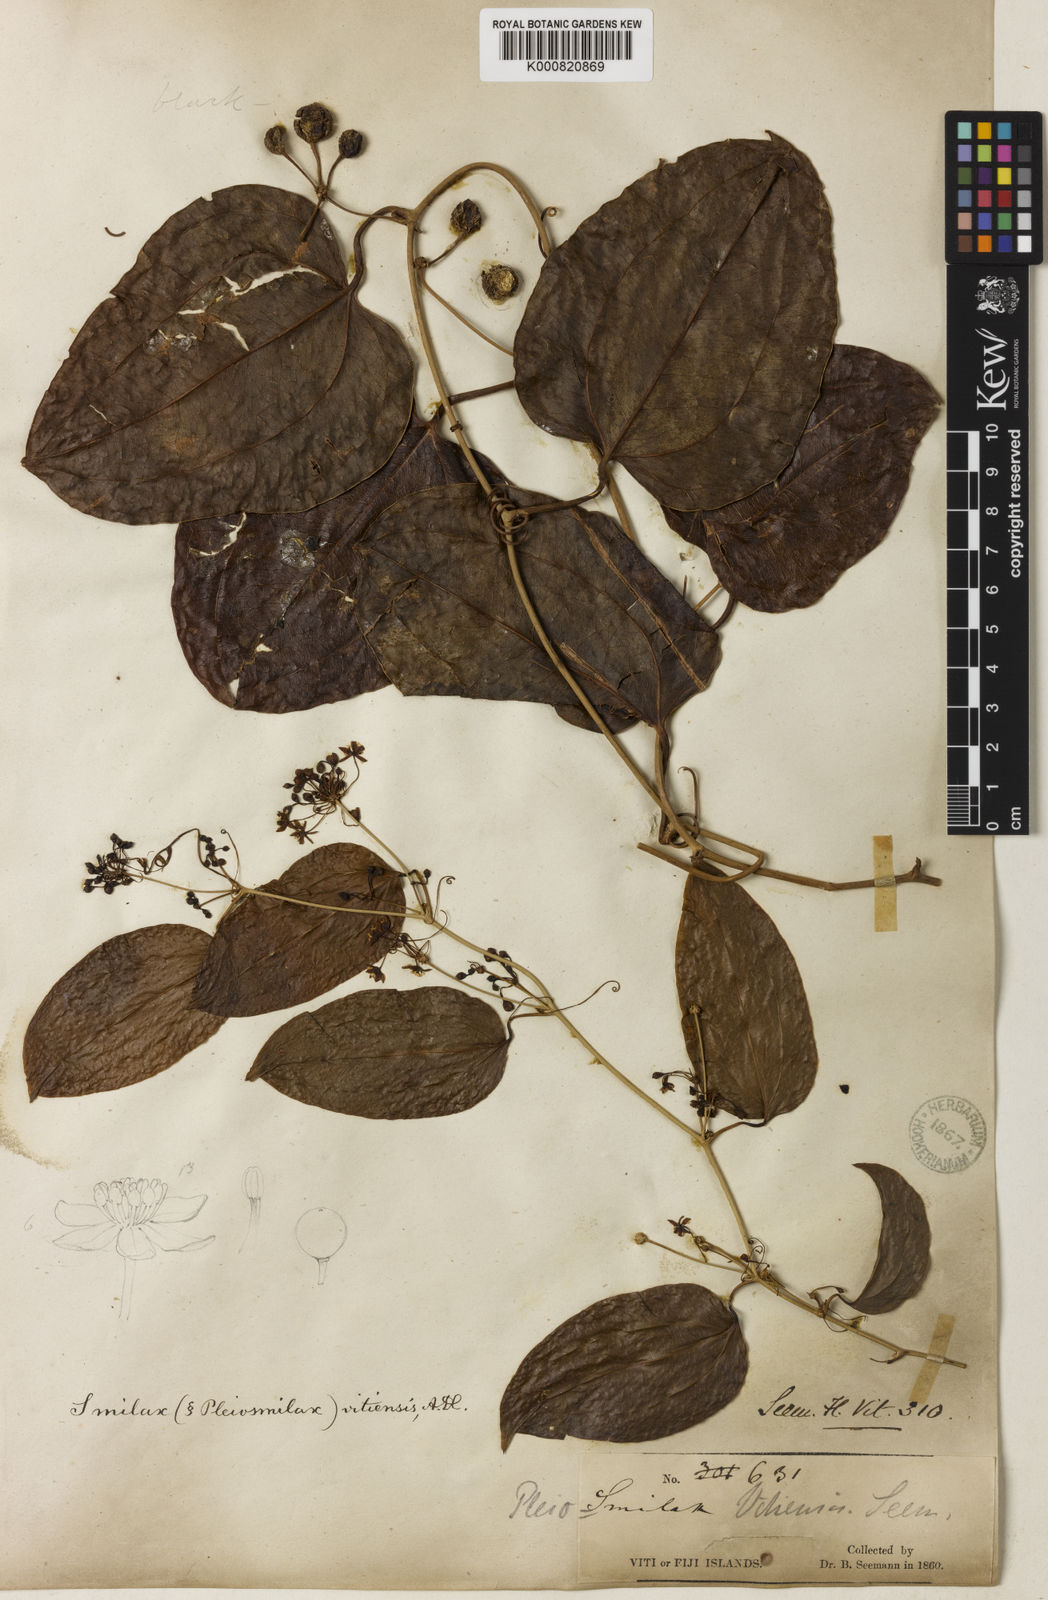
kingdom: Plantae
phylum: Tracheophyta
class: Liliopsida
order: Liliales
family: Smilacaceae
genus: Smilax
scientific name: Smilax vitiensis
